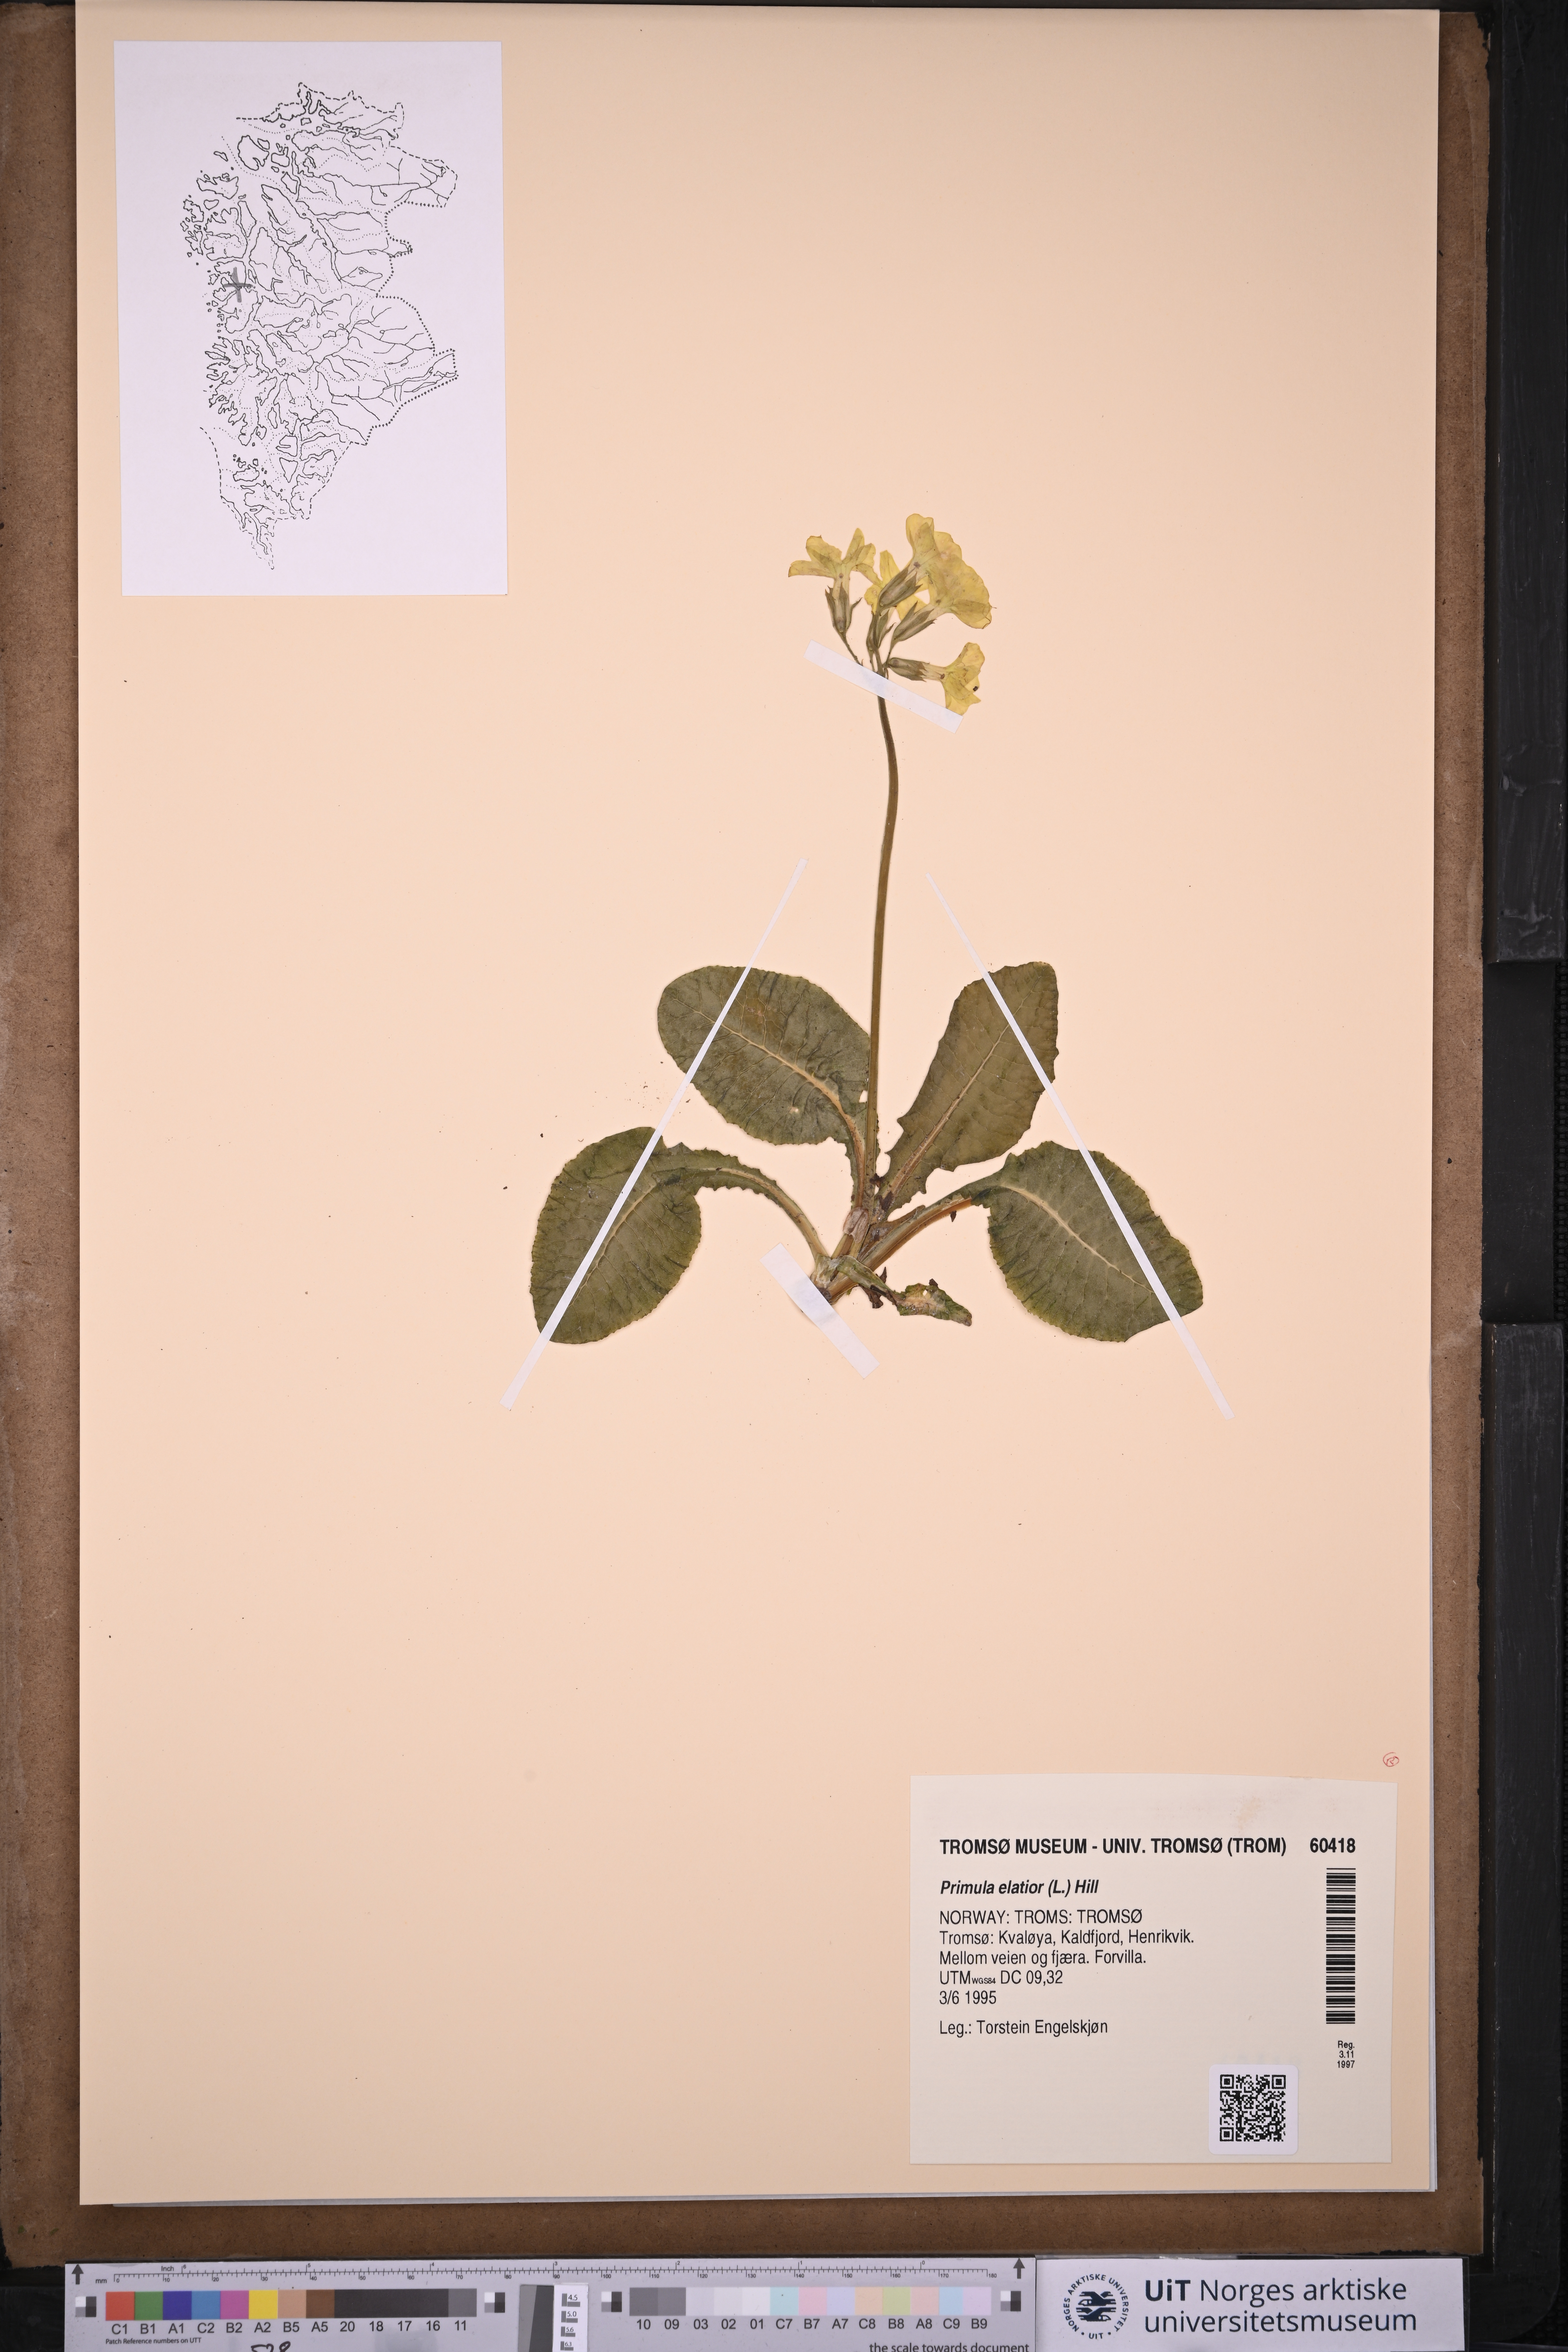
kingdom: Plantae
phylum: Tracheophyta
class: Magnoliopsida
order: Ericales
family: Primulaceae
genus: Primula
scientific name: Primula elatior
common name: Oxlip
